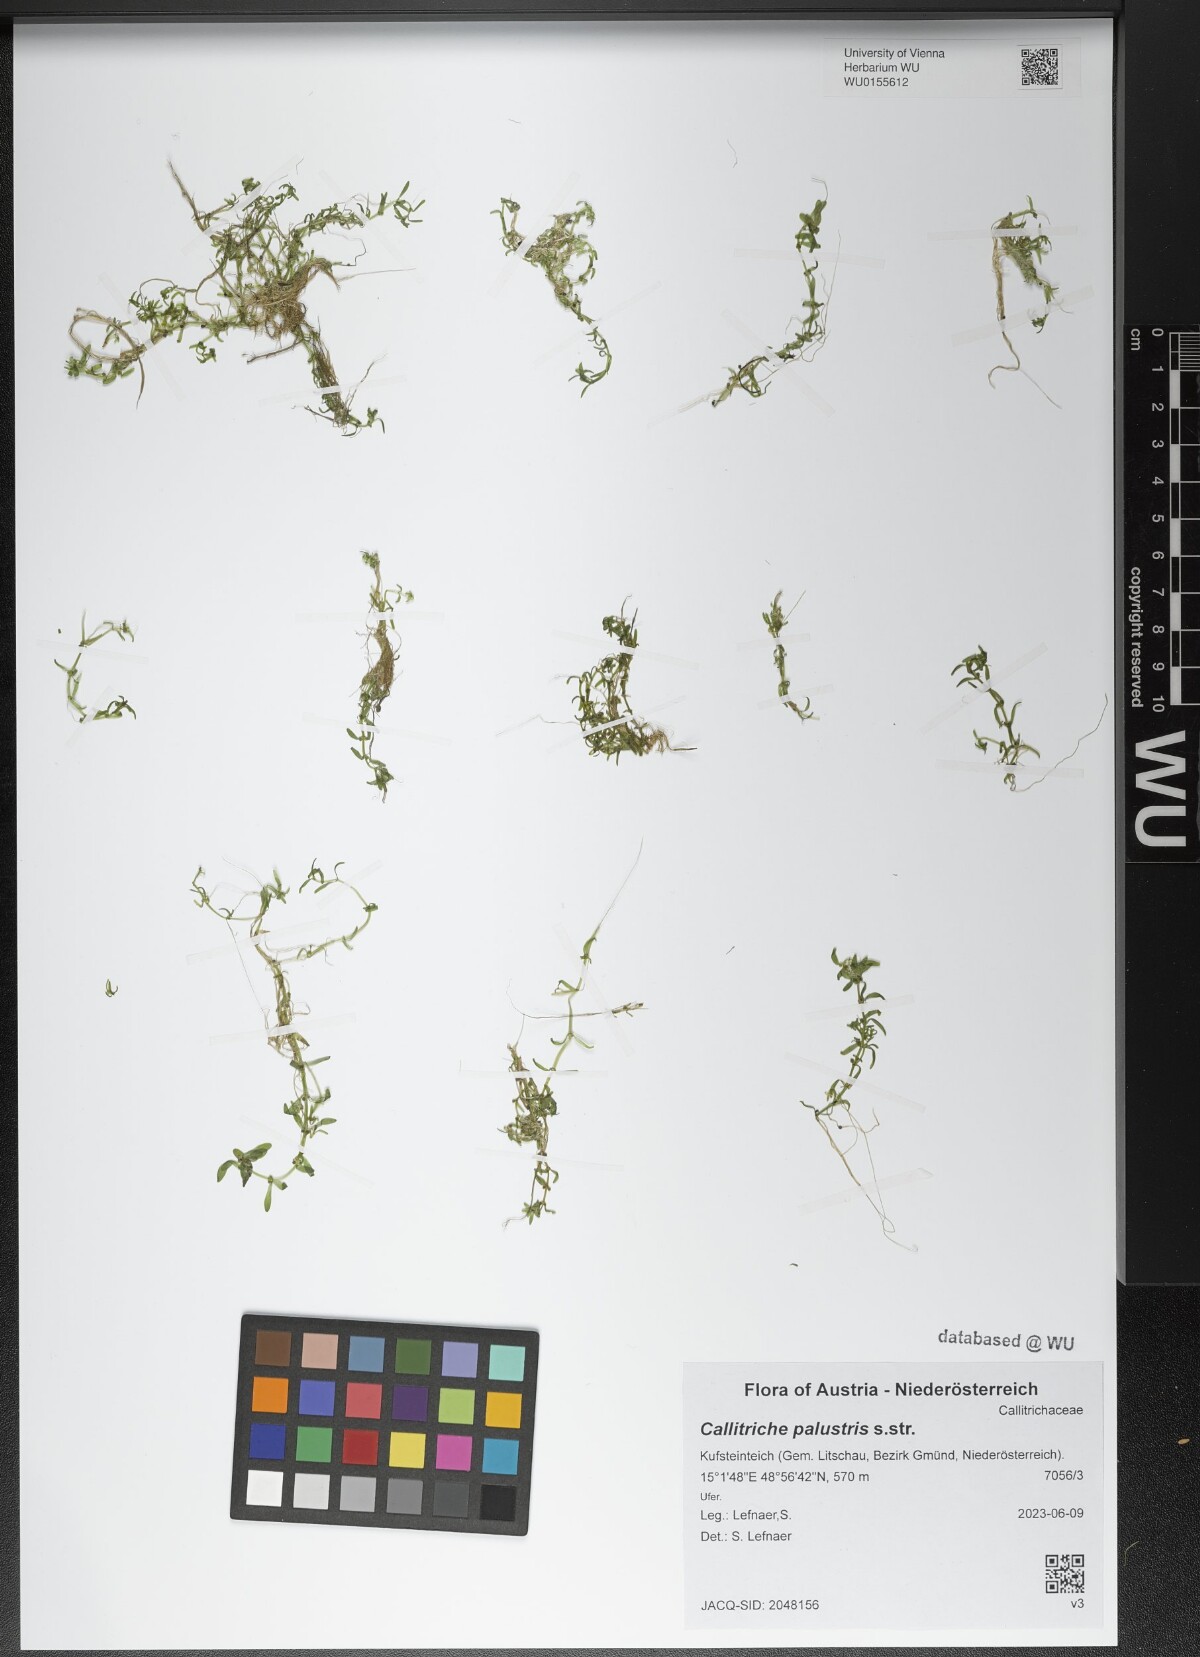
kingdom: Plantae
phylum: Tracheophyta
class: Magnoliopsida
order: Lamiales
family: Plantaginaceae
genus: Callitriche
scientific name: Callitriche palustris
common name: Spring water-starwort
